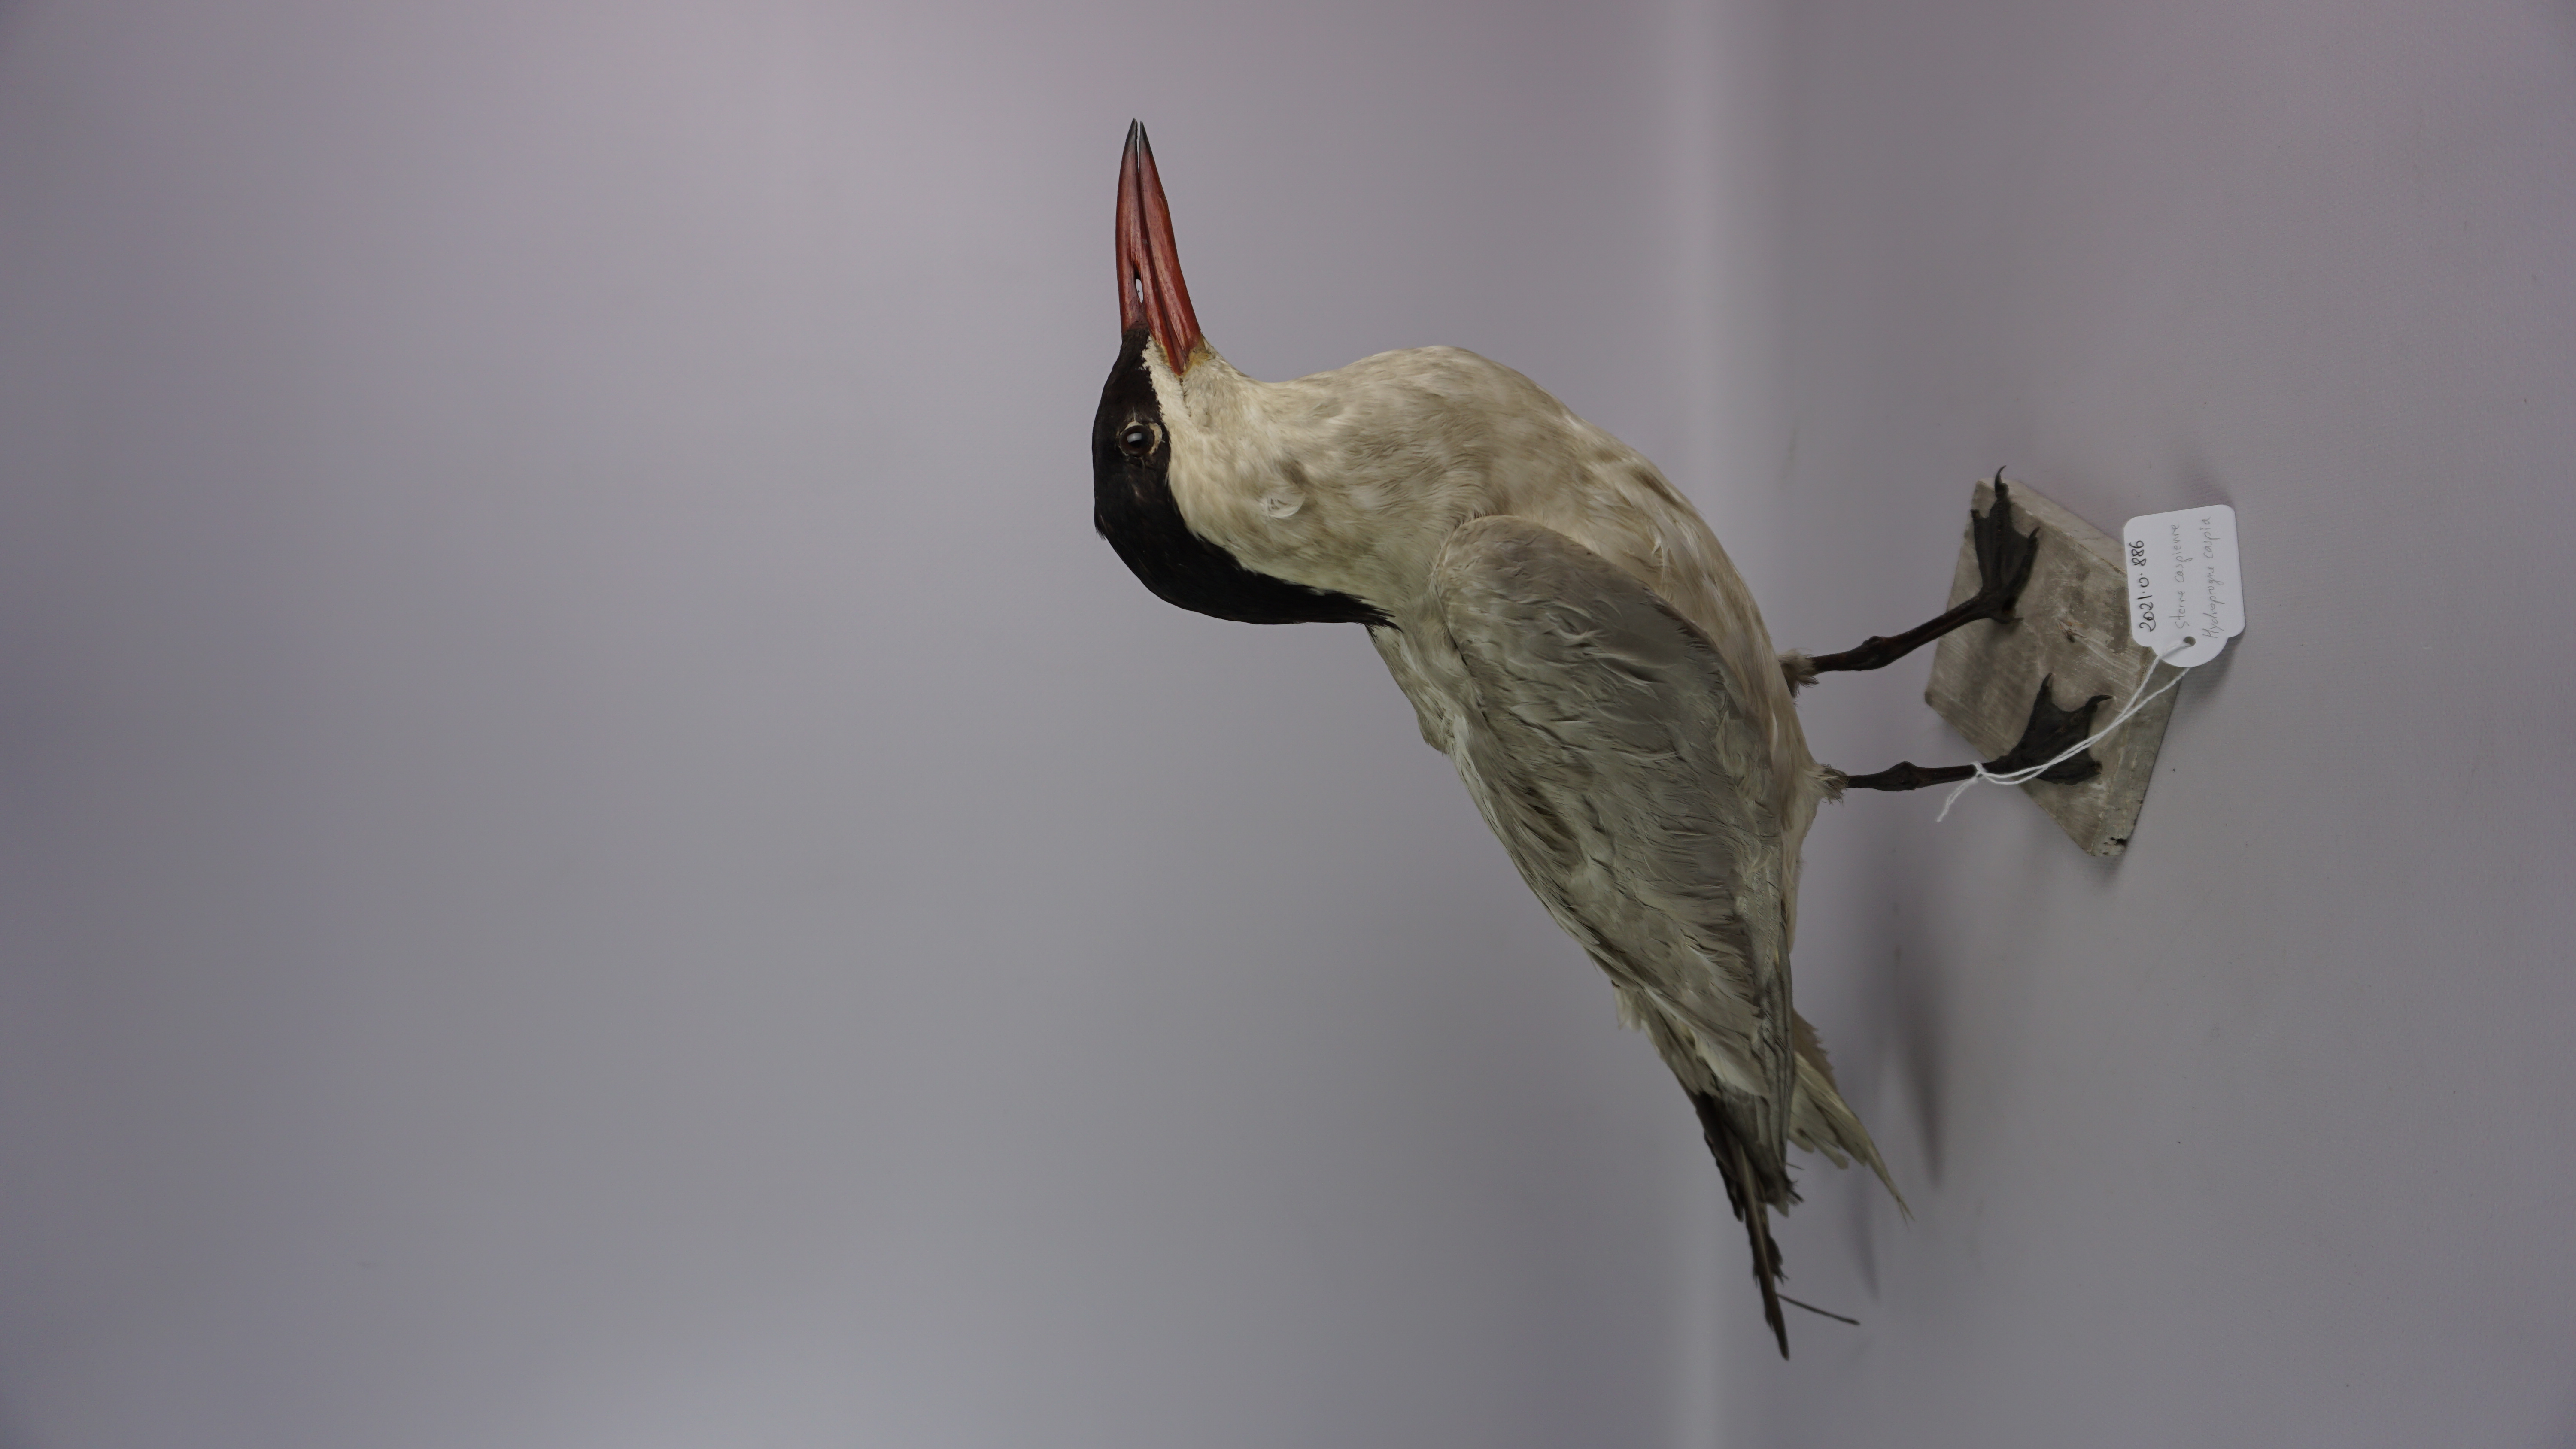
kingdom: Animalia
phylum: Chordata
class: Aves
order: Charadriiformes
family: Laridae
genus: Hydroprogne
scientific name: Hydroprogne caspia
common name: Caspian tern
